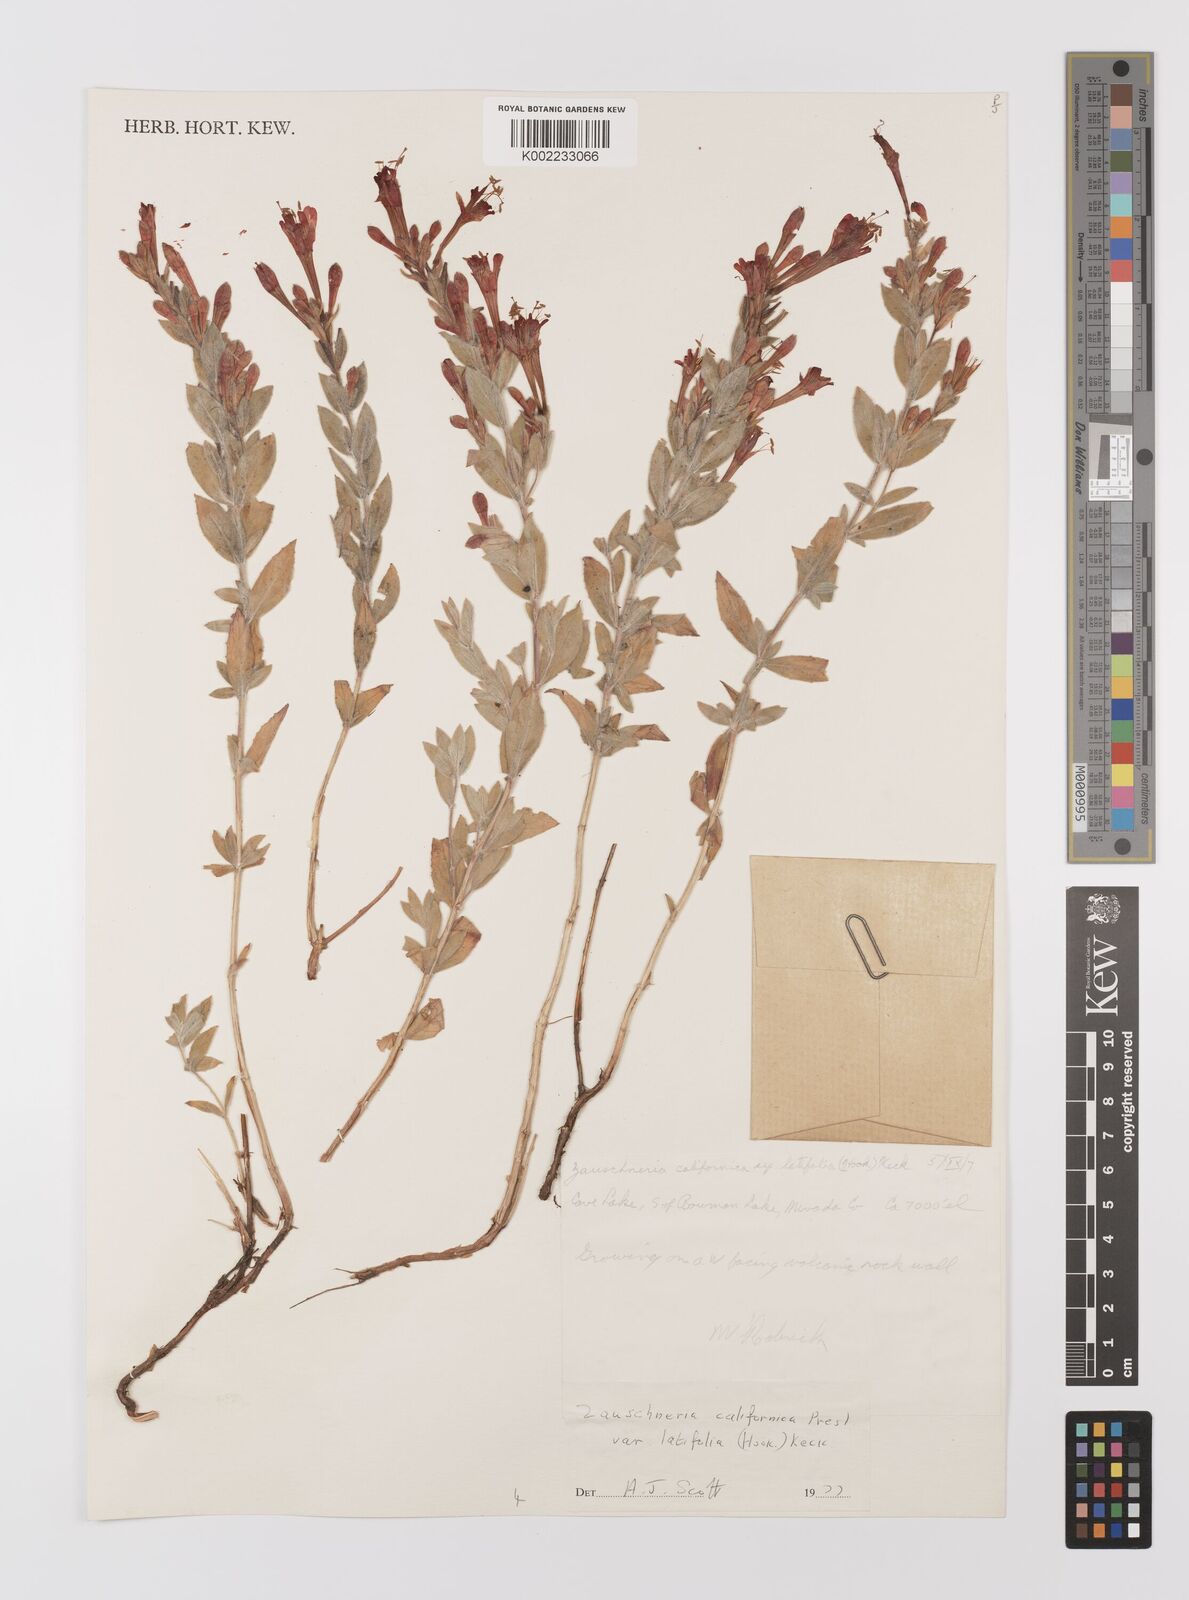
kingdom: Plantae
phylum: Tracheophyta
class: Magnoliopsida
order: Myrtales
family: Onagraceae
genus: Epilobium
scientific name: Epilobium ciliatum
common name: American willowherb
